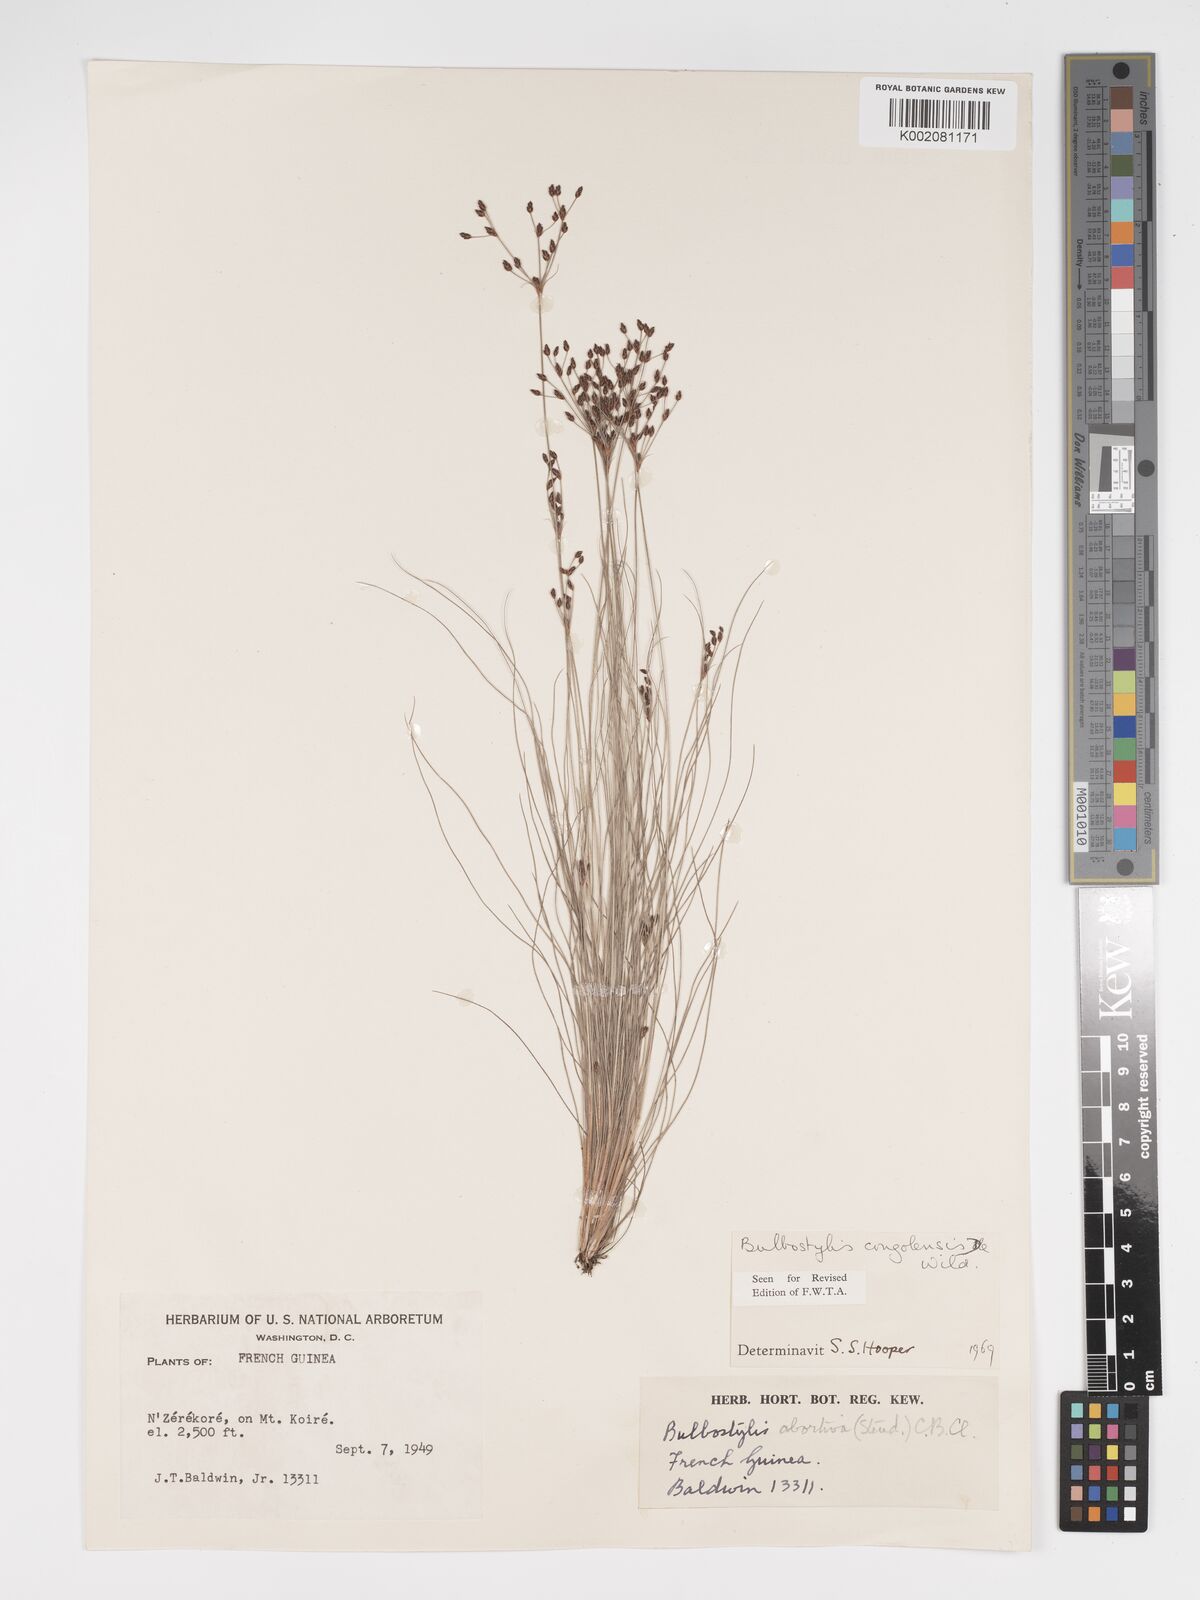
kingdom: Plantae
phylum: Tracheophyta
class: Liliopsida
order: Poales
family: Cyperaceae
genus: Bulbostylis
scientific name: Bulbostylis congolensis
